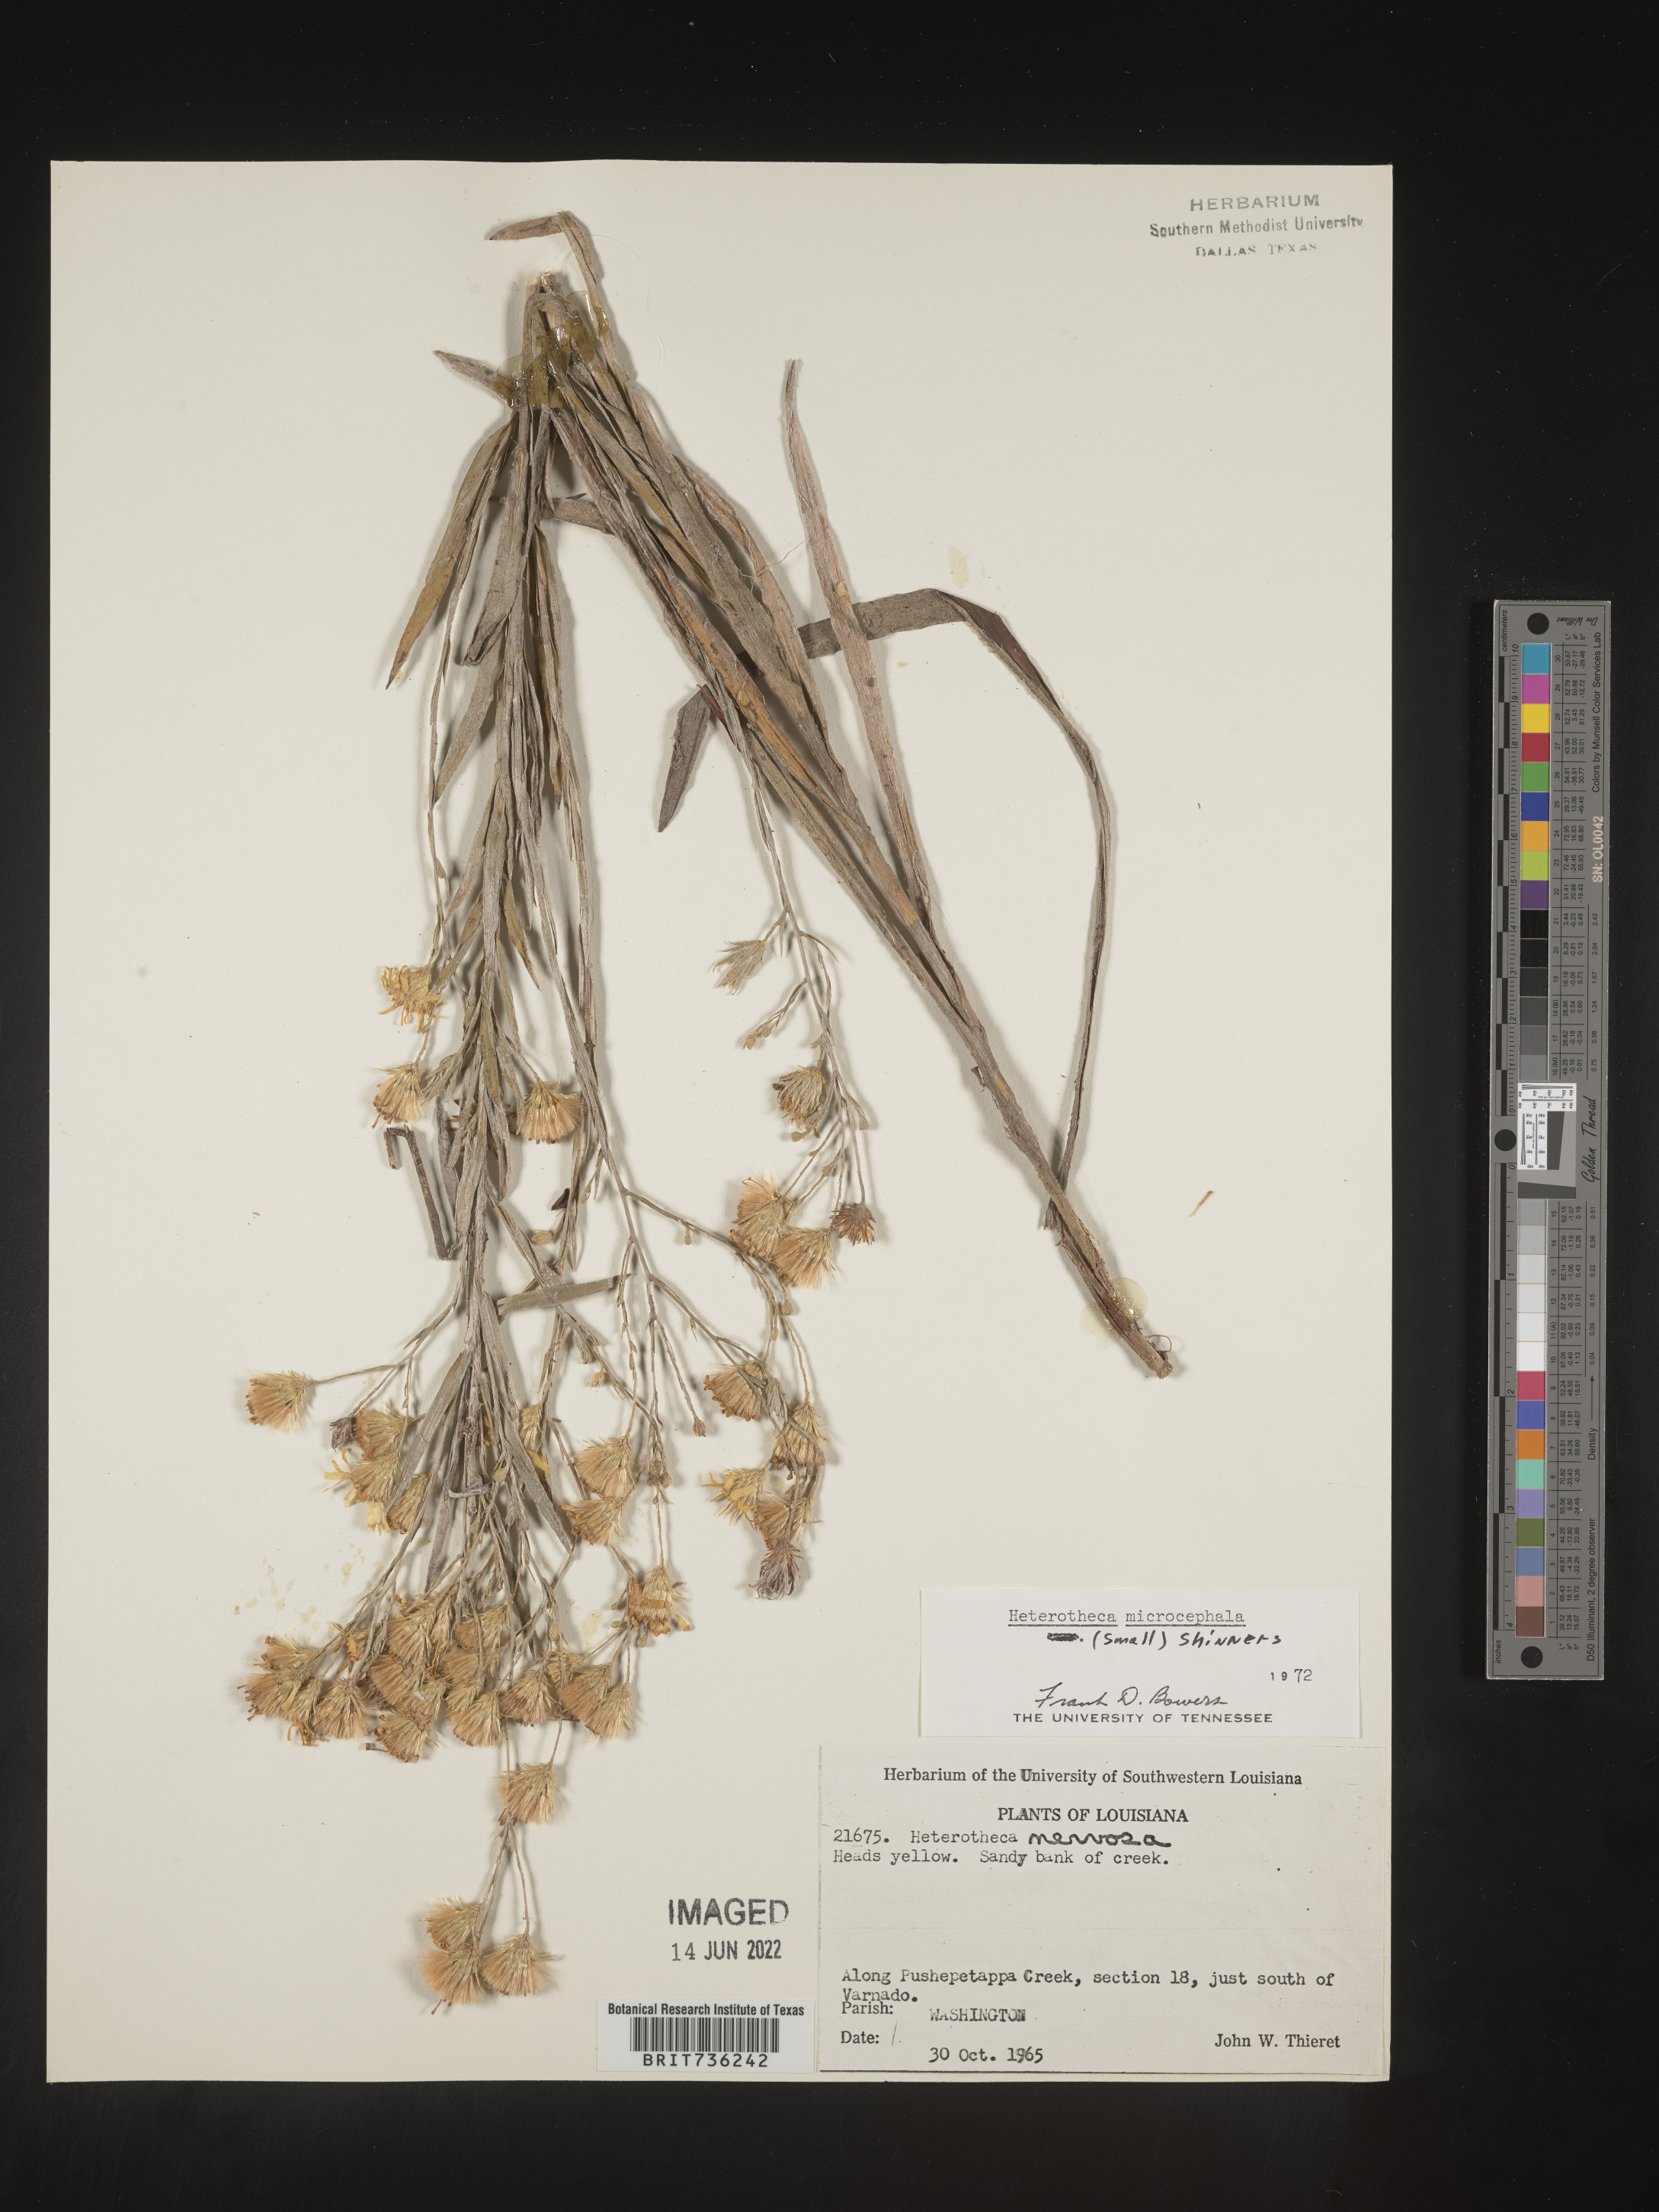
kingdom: Plantae
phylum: Tracheophyta
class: Magnoliopsida
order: Asterales
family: Asteraceae
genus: Pityopsis
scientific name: Pityopsis graminifolia
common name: Grass-leaf golden-aster
